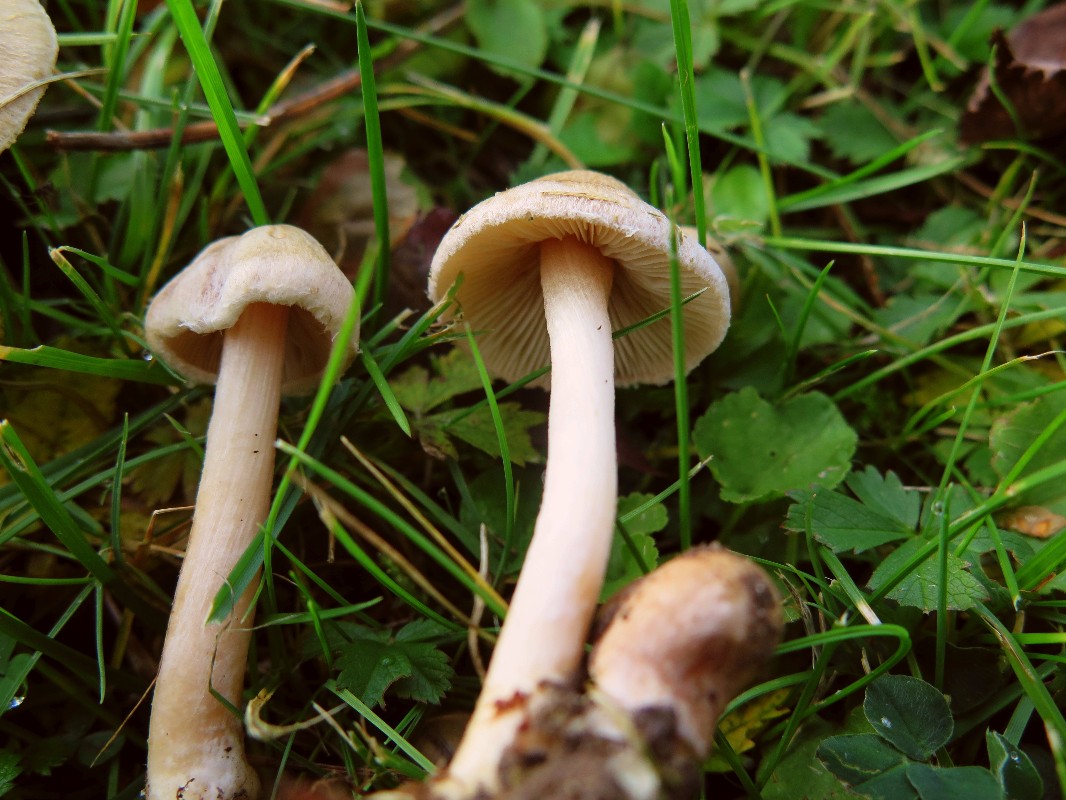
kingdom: Fungi
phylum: Basidiomycota
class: Agaricomycetes
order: Agaricales
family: Tricholomataceae
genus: Tricholoma
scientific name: Tricholoma argyraceum
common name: slør-ridderhat
